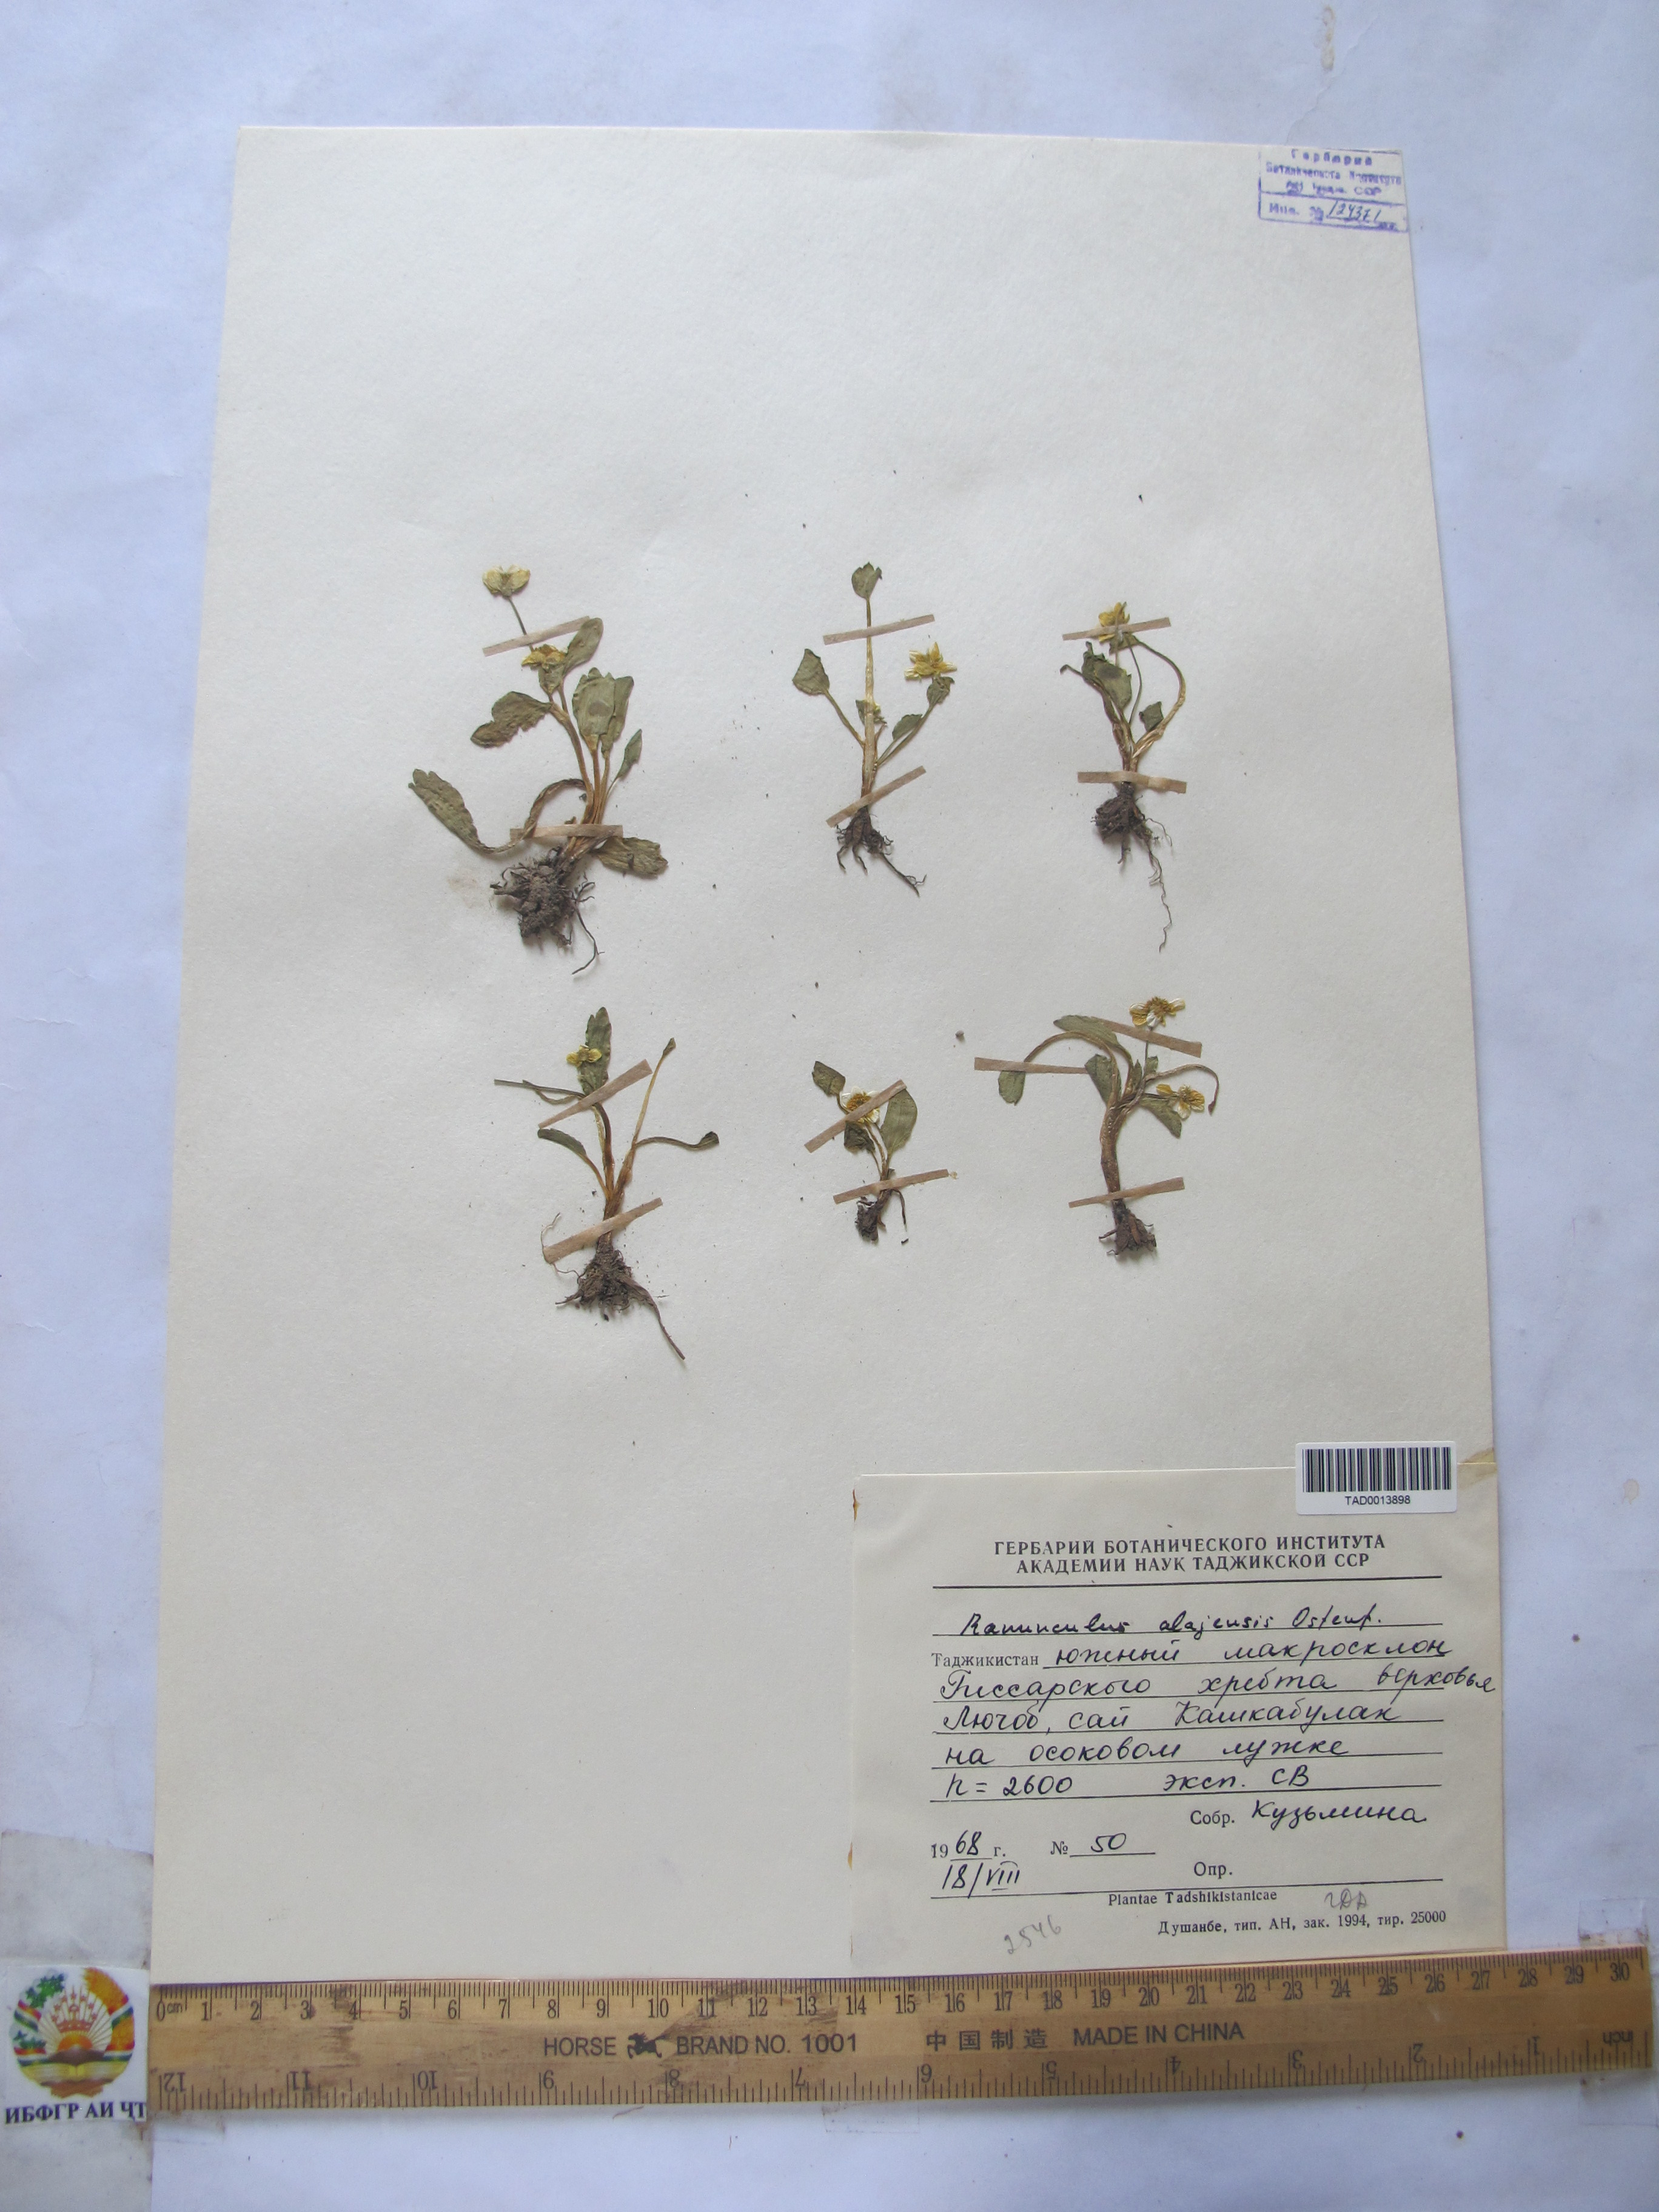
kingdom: Plantae
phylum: Tracheophyta
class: Magnoliopsida
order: Ranunculales
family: Ranunculaceae
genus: Ranunculus
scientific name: Ranunculus alaiensis
